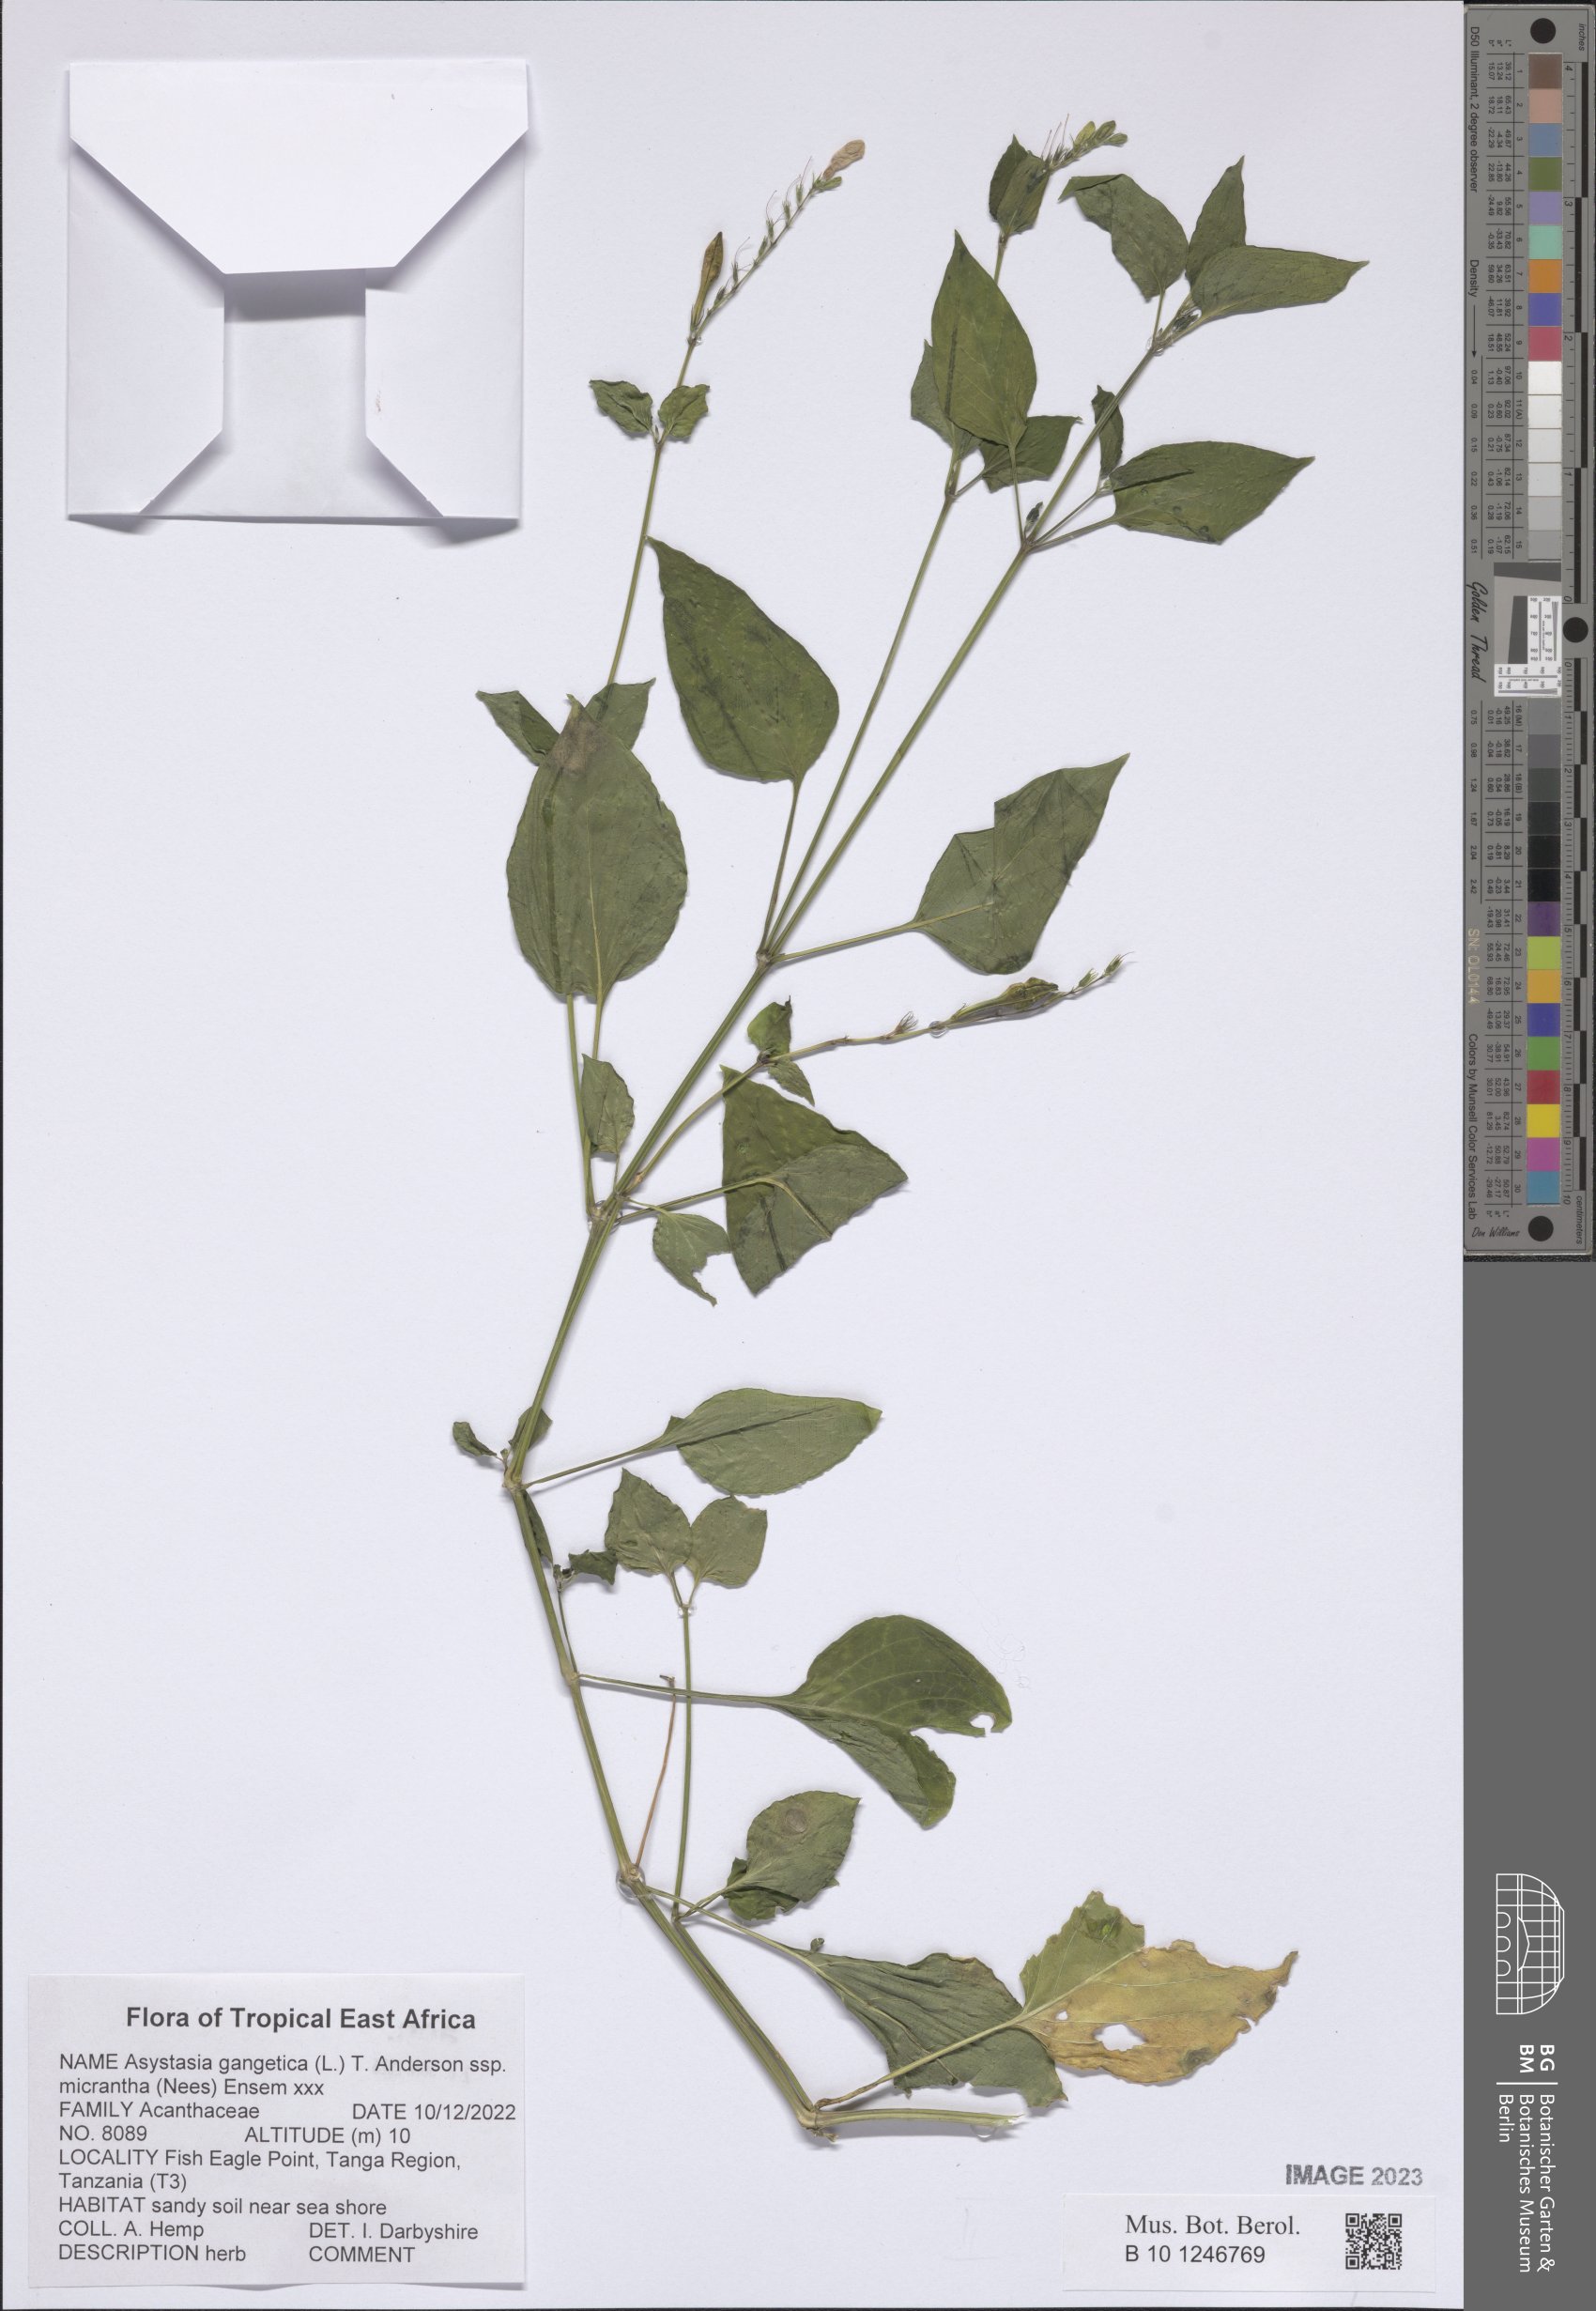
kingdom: Plantae
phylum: Tracheophyta
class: Magnoliopsida
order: Lamiales
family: Acanthaceae
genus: Asystasia
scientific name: Asystasia intrusa
